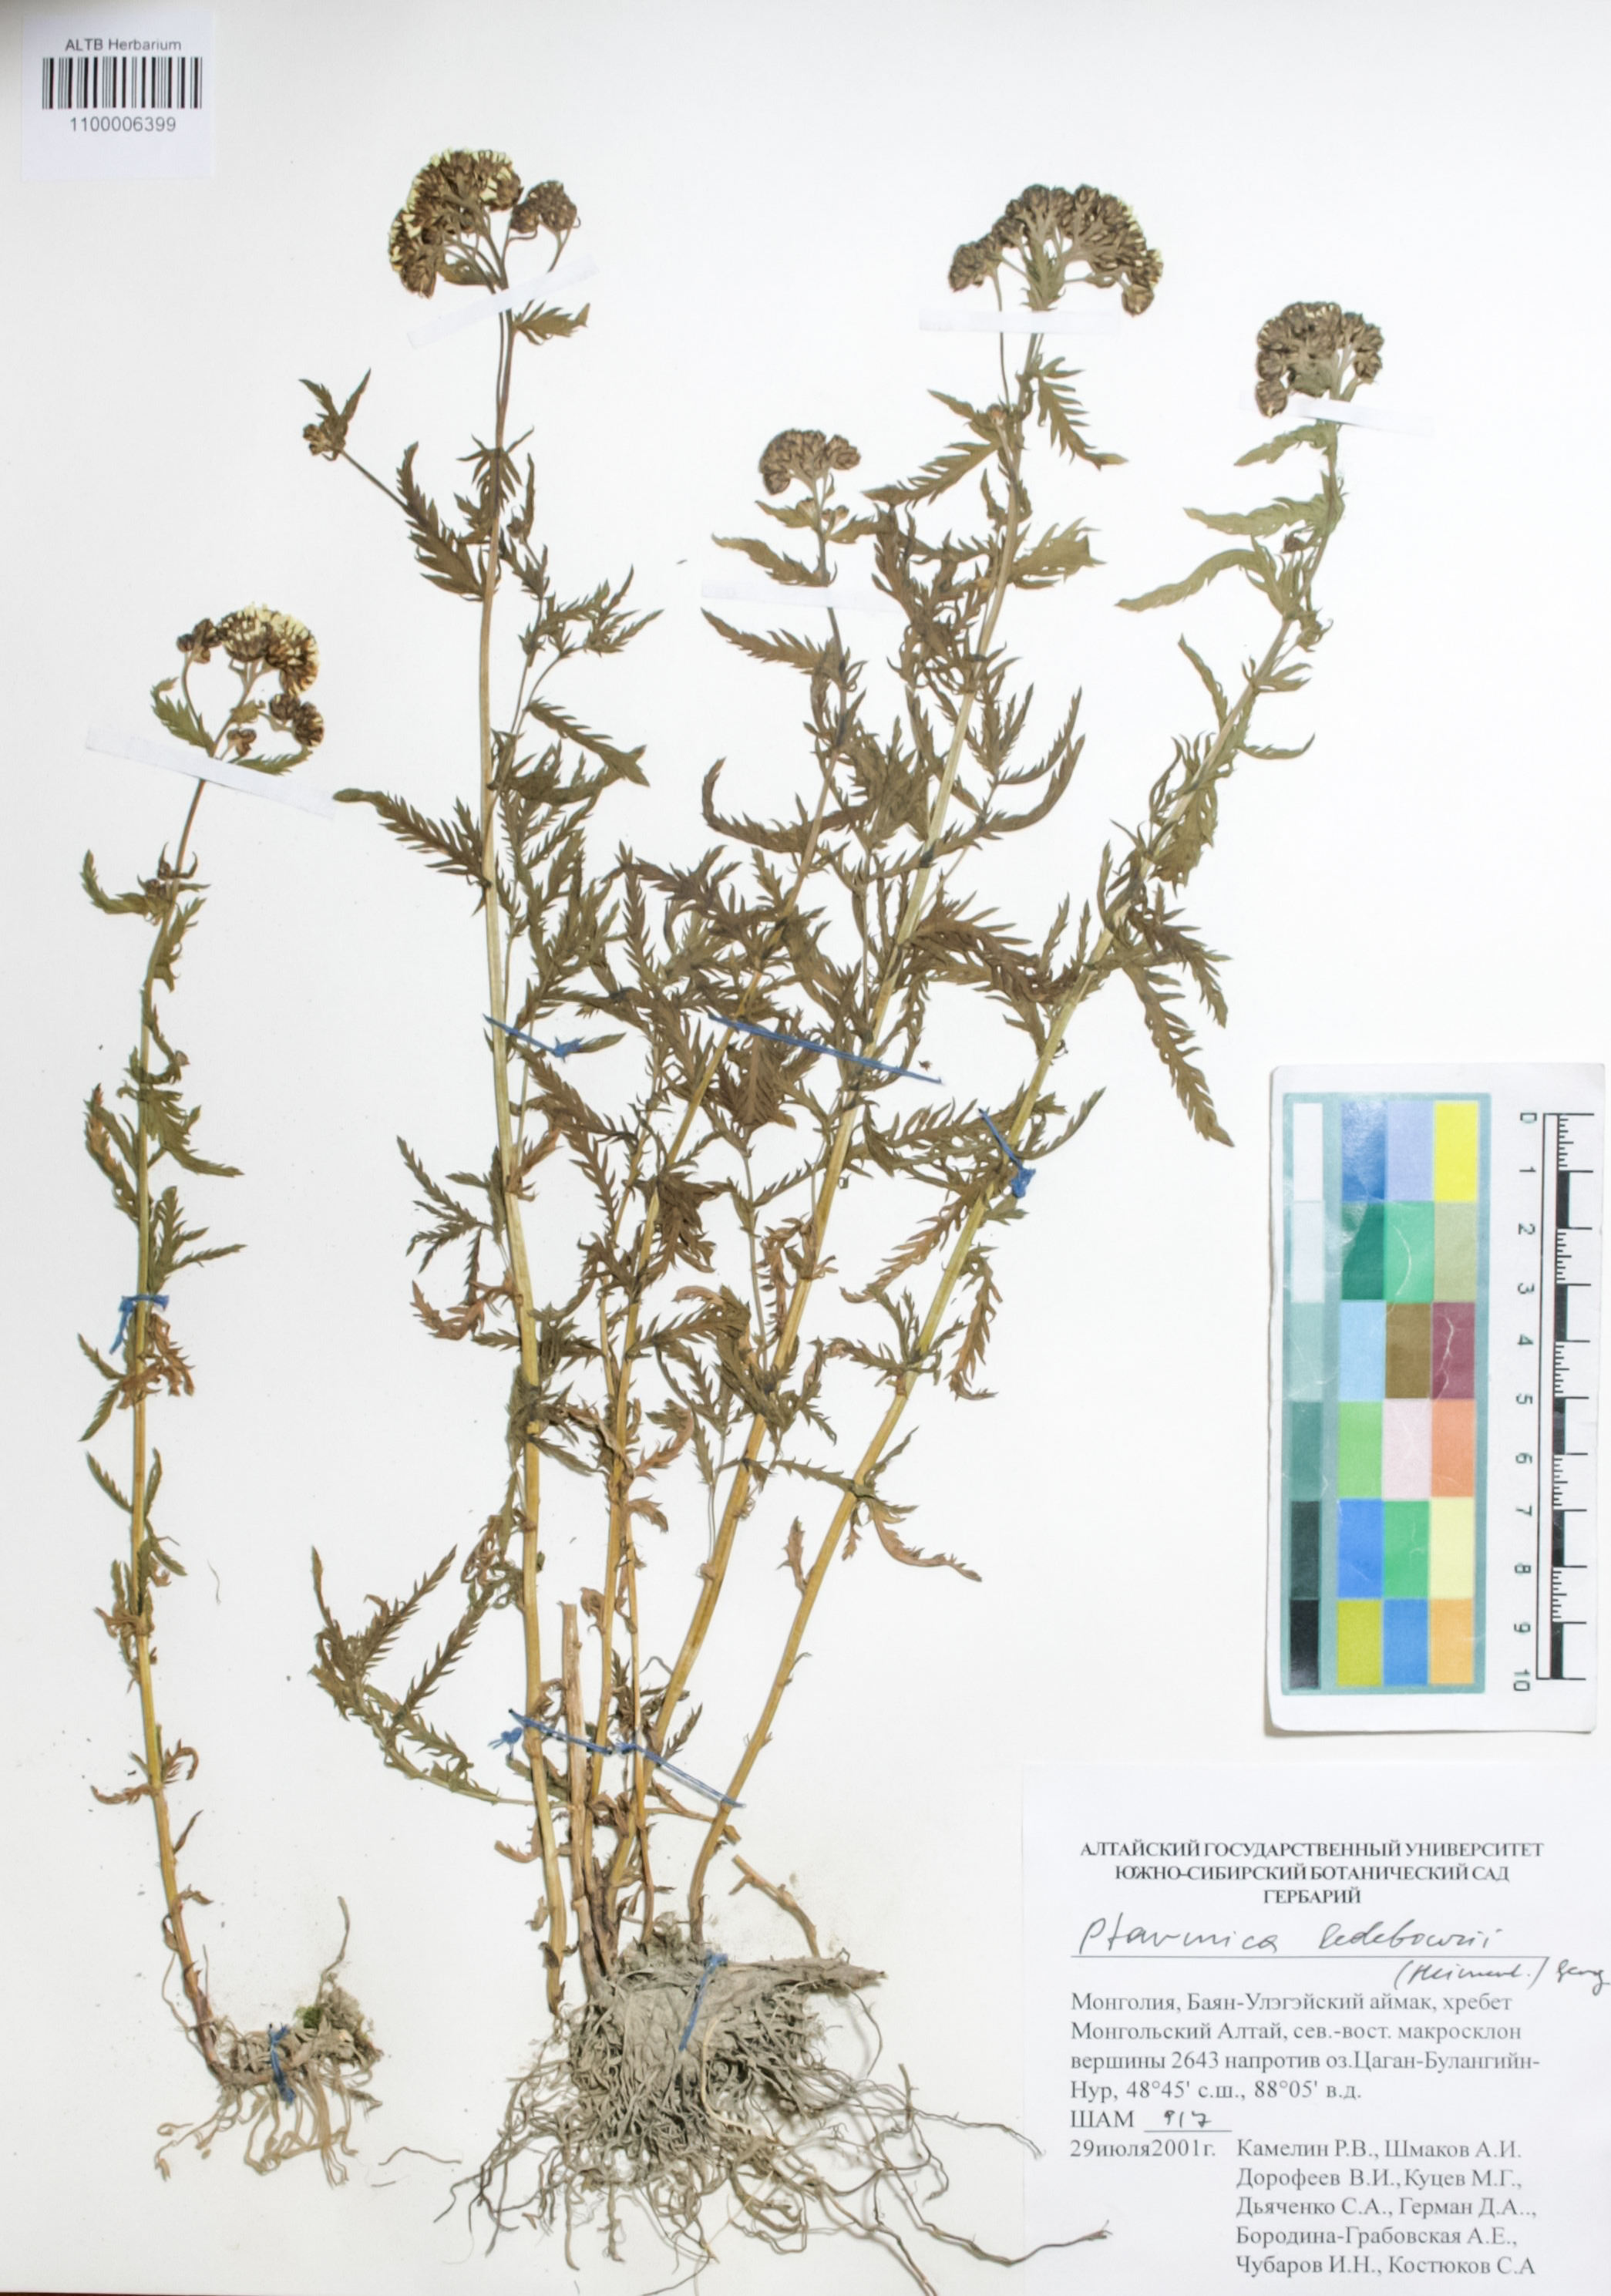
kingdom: Plantae
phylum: Tracheophyta
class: Magnoliopsida
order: Asterales
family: Asteraceae
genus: Achillea
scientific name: Achillea ledebourii
